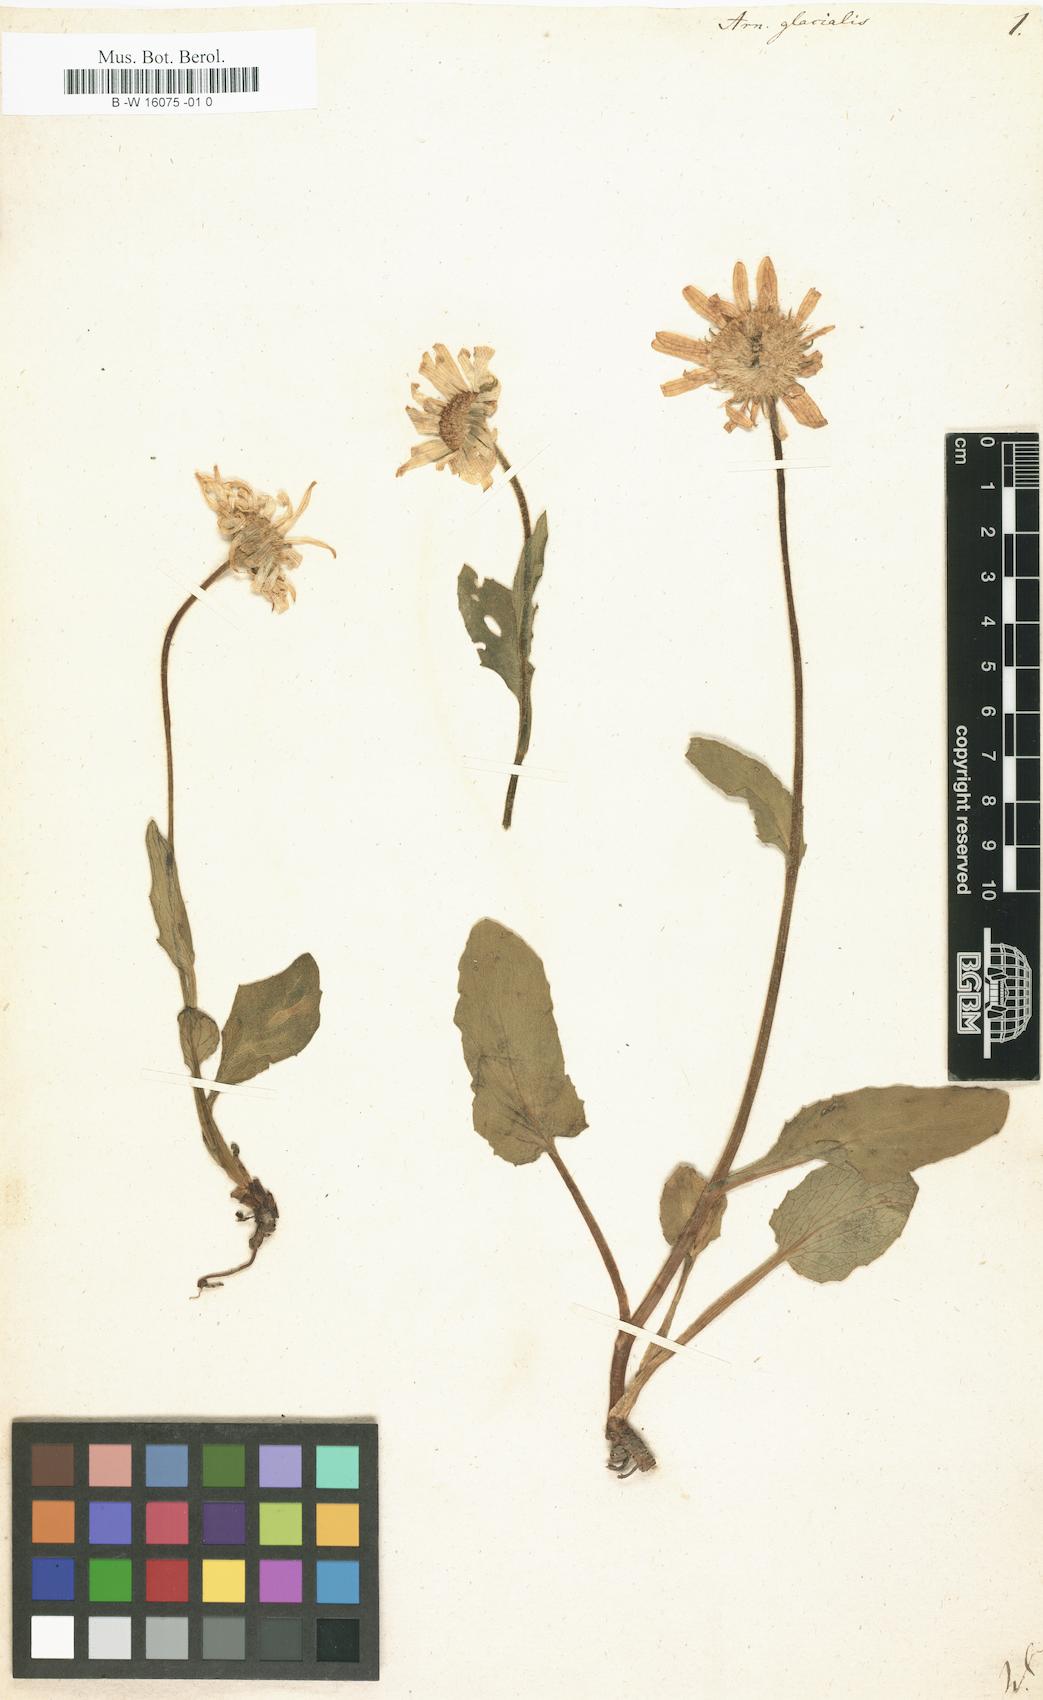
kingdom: Plantae
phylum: Tracheophyta
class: Magnoliopsida
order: Asterales
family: Asteraceae
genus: Doronicum
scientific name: Doronicum glaciale
